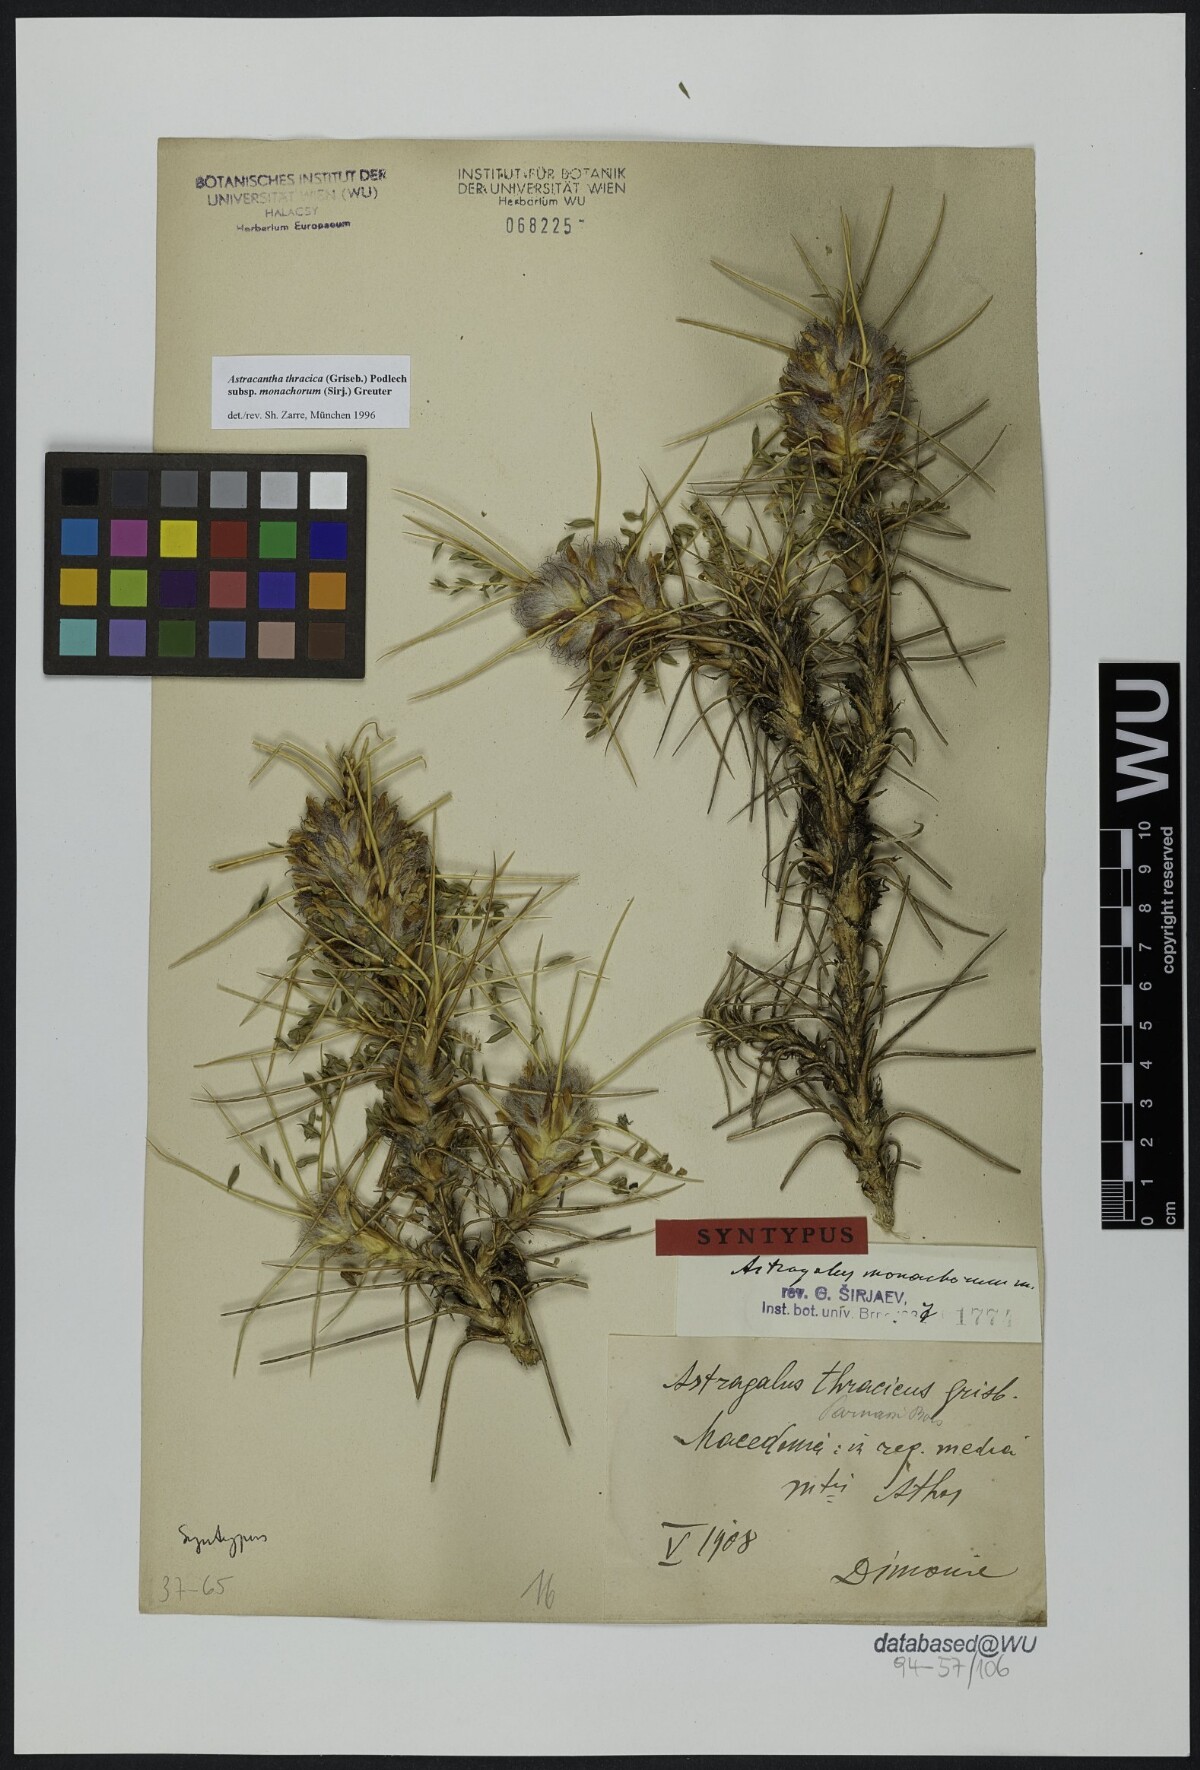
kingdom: Plantae
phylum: Tracheophyta
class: Magnoliopsida
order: Fabales
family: Fabaceae
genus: Astragalus
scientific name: Astragalus thracicus
